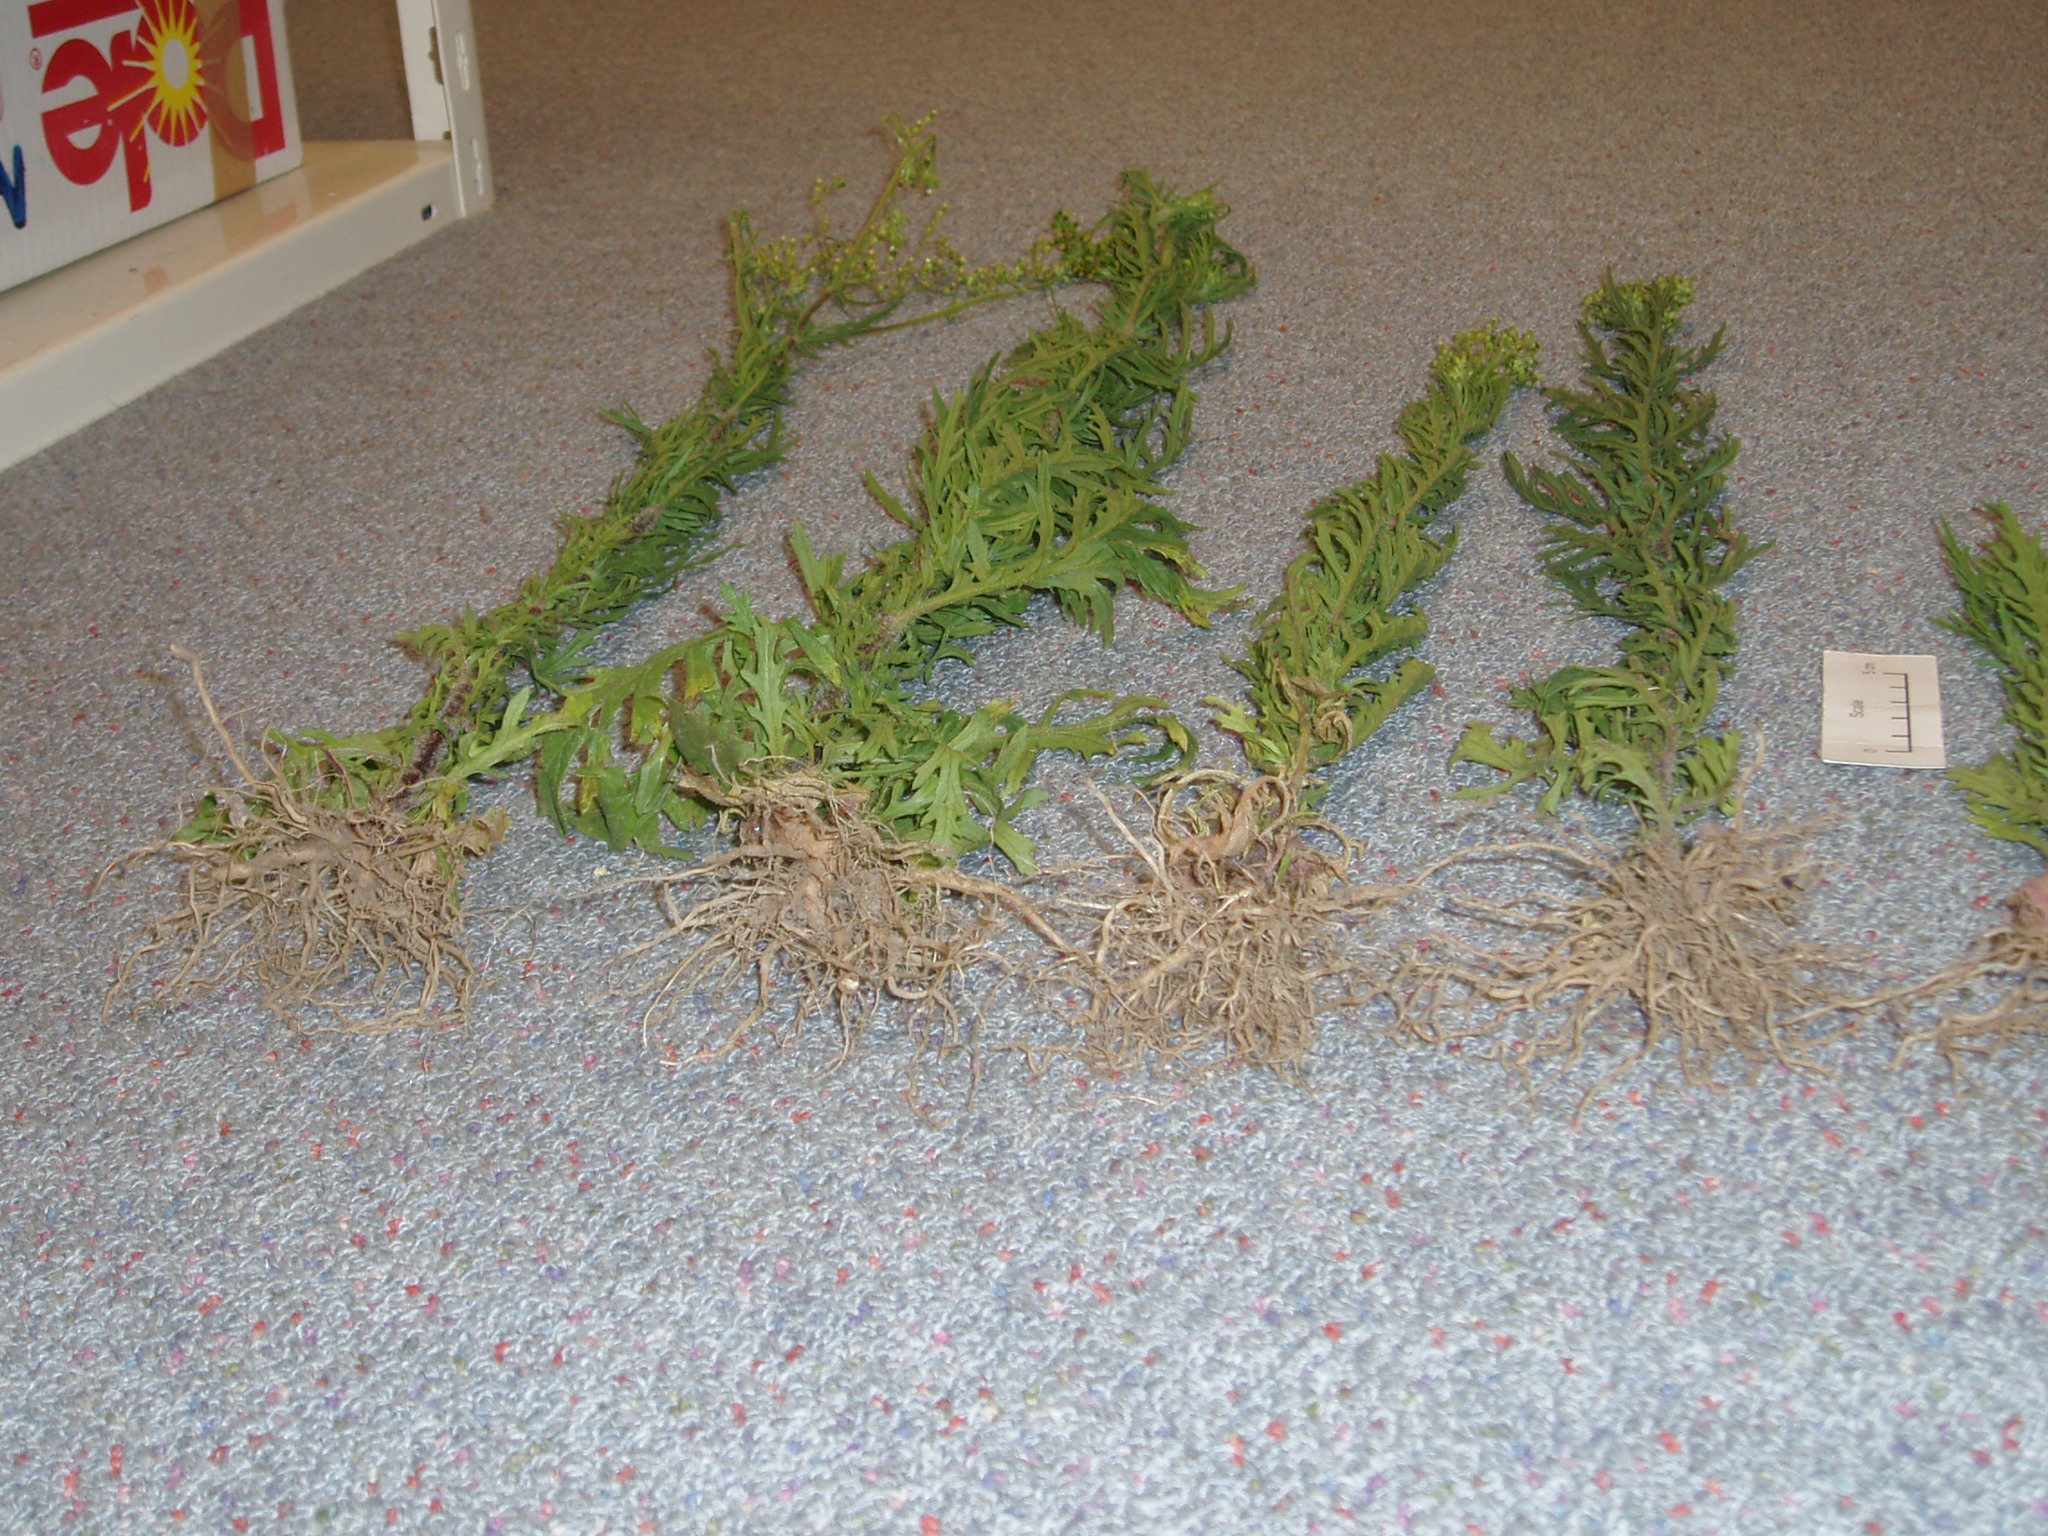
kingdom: Plantae
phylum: Tracheophyta
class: Magnoliopsida
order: Asterales
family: Asteraceae
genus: Senecio
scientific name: Senecio esleri
